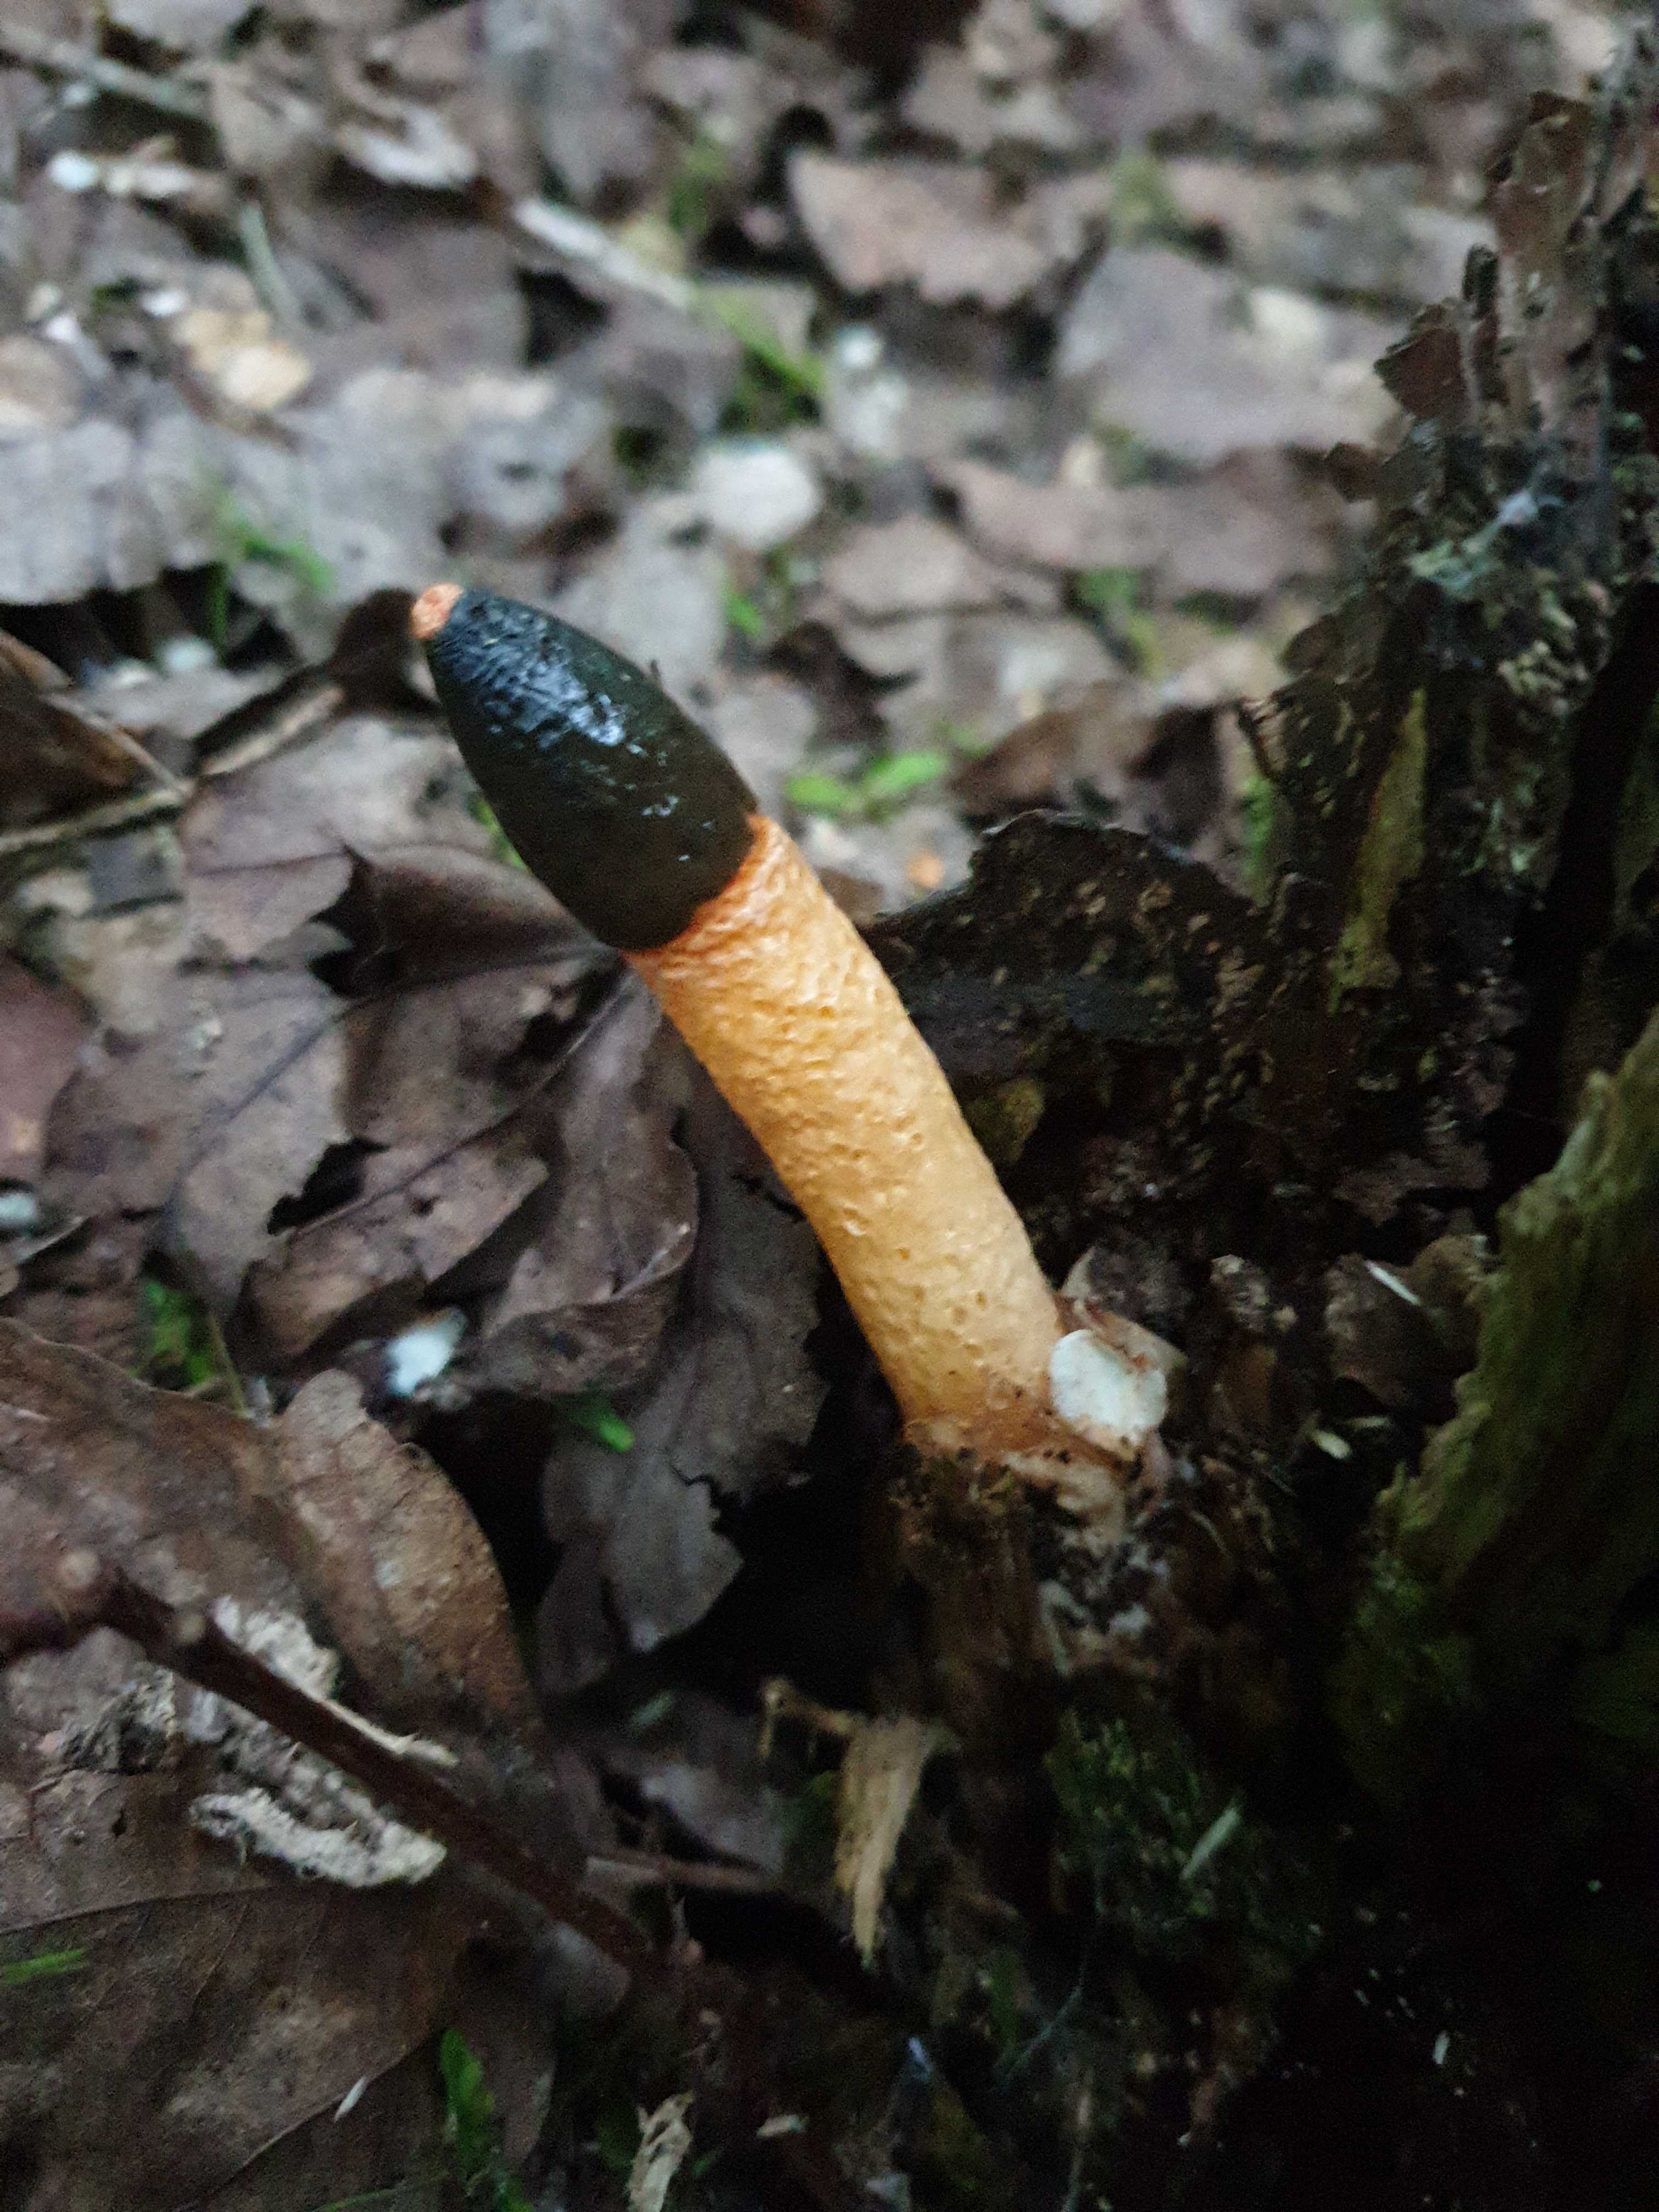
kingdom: Fungi
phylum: Basidiomycota
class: Agaricomycetes
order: Phallales
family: Phallaceae
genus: Mutinus
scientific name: Mutinus caninus
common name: hunde-stinksvamp
